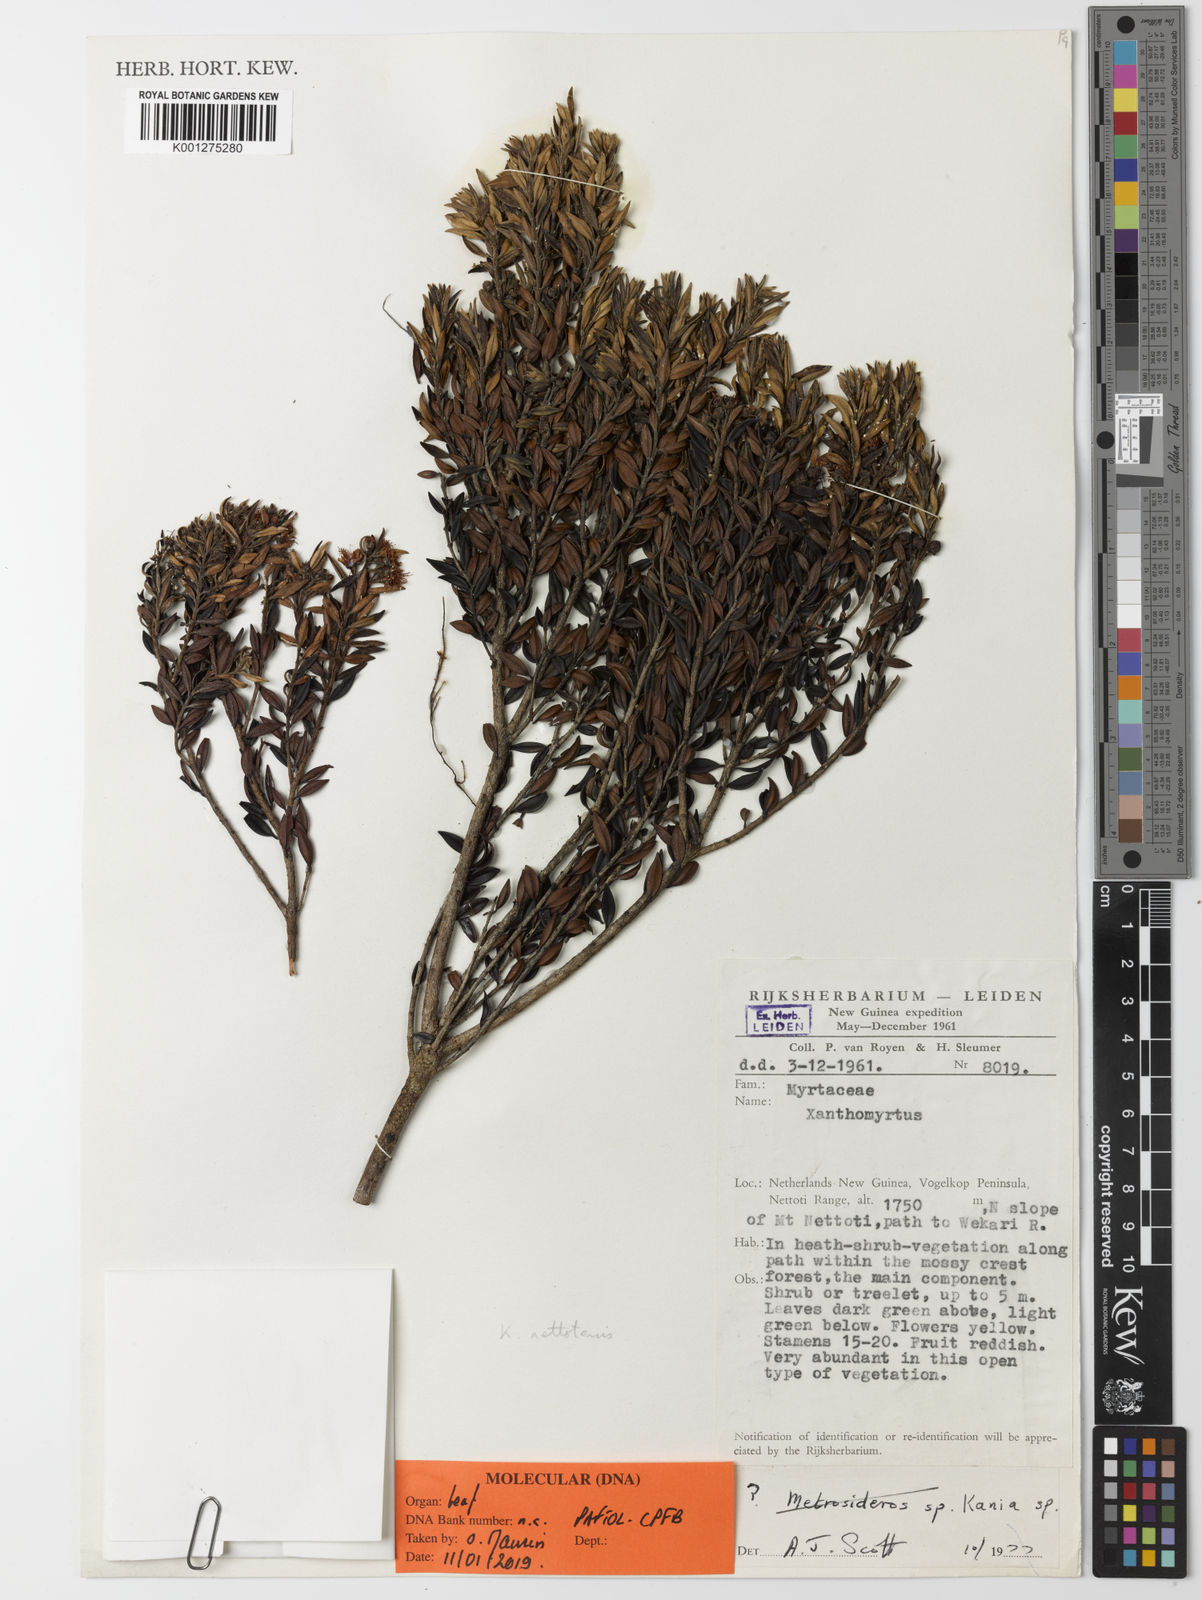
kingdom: Plantae
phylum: Tracheophyta
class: Magnoliopsida
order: Myrtales
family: Myrtaceae
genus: Kania
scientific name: Kania nettotensis
